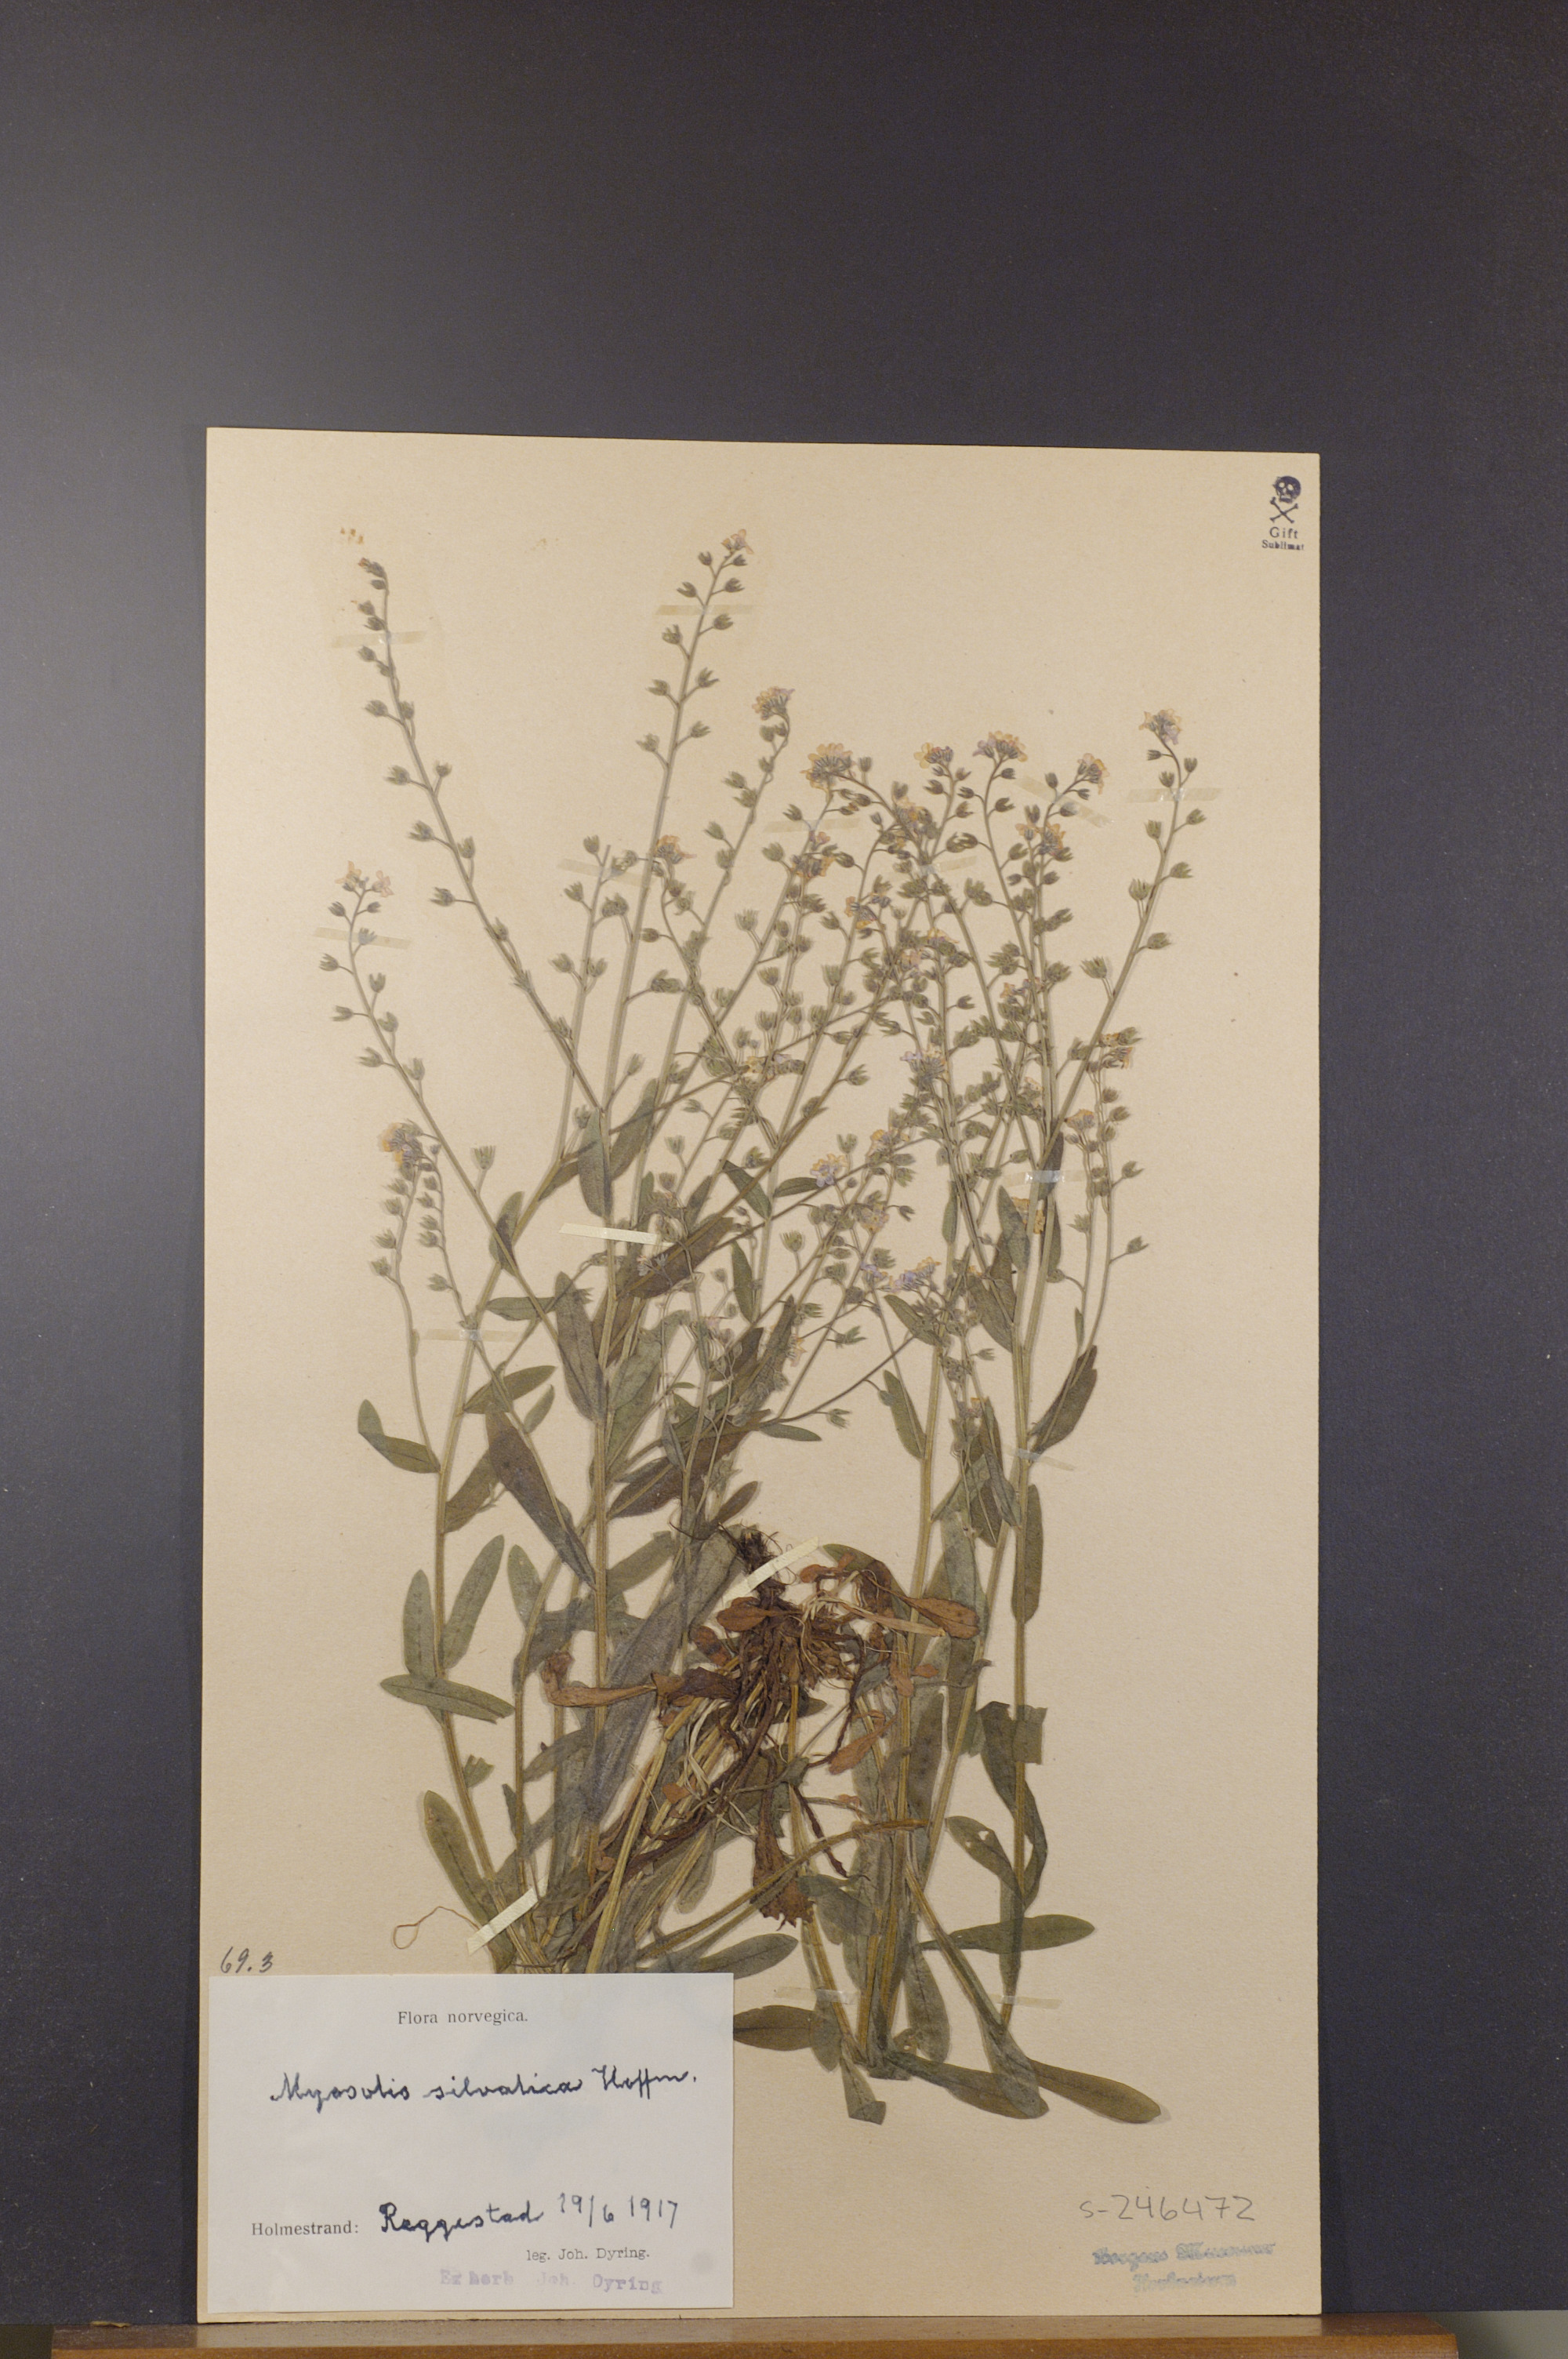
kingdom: Plantae
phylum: Tracheophyta
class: Magnoliopsida
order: Boraginales
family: Boraginaceae
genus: Myosotis
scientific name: Myosotis sylvatica
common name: Wood forget-me-not
